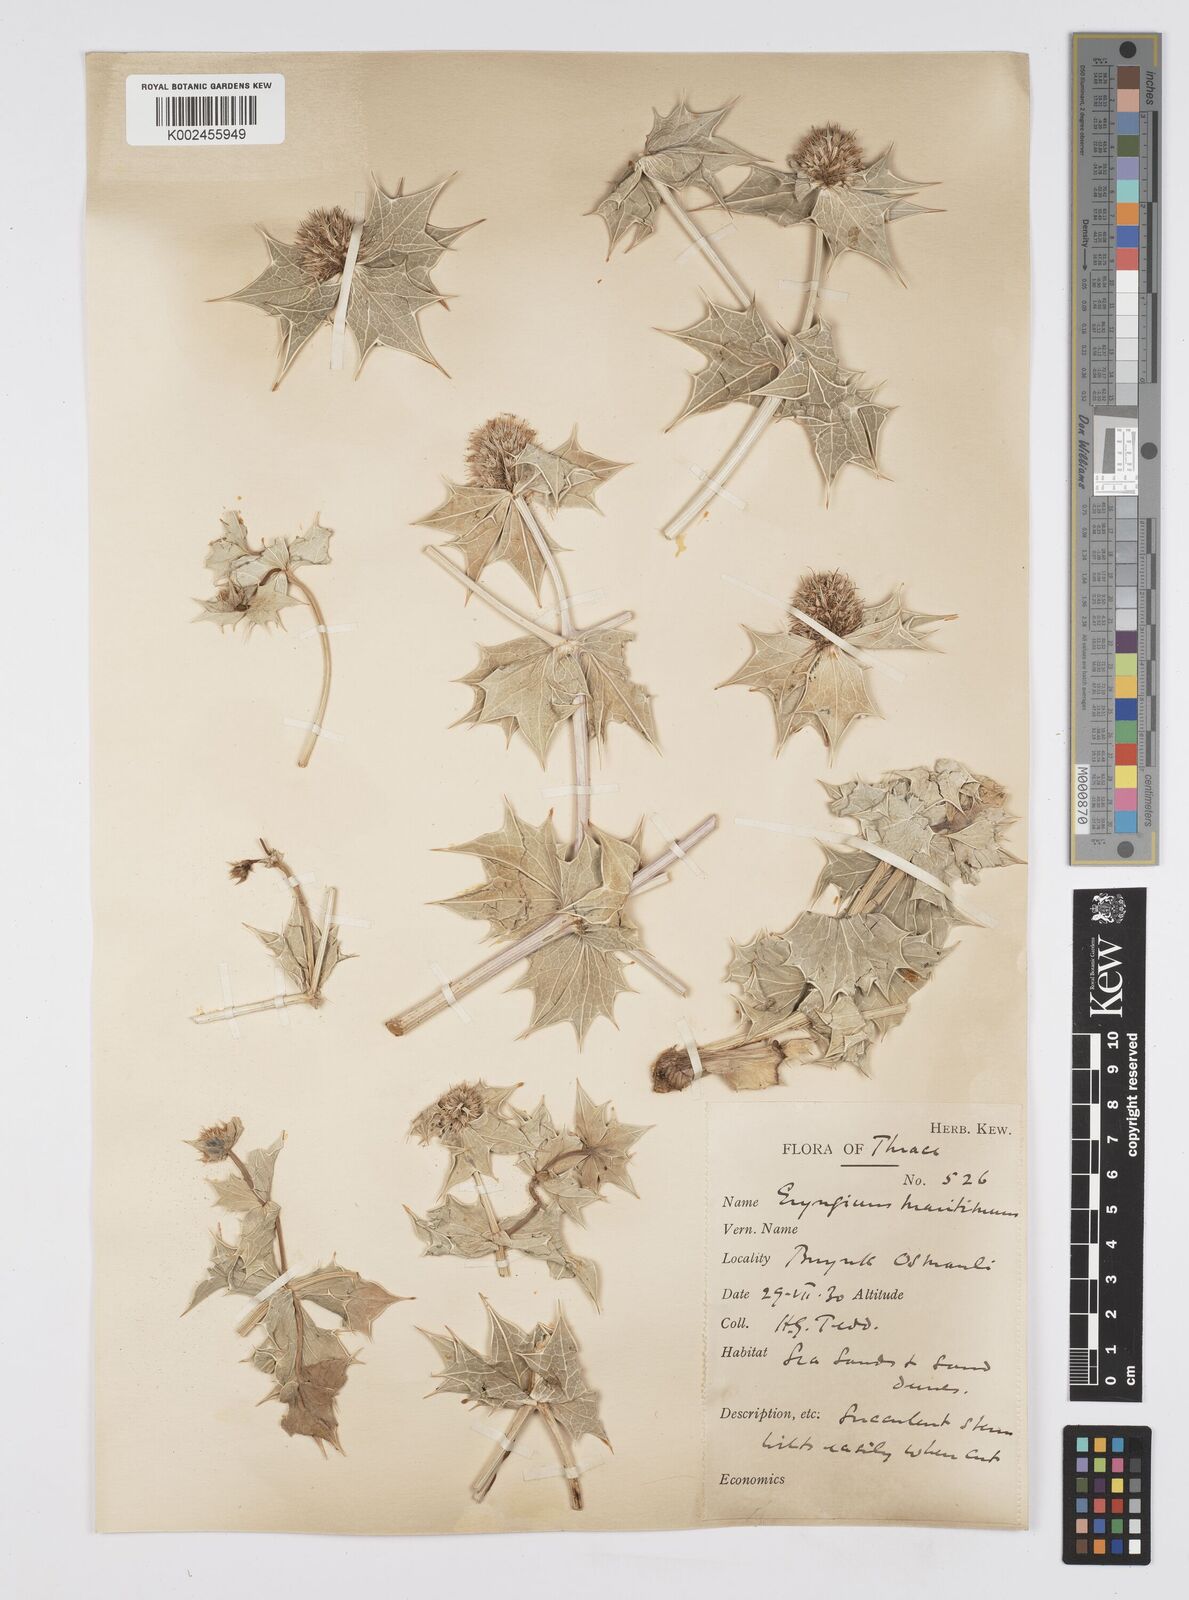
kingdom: Plantae
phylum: Tracheophyta
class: Magnoliopsida
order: Apiales
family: Apiaceae
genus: Eryngium
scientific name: Eryngium maritimum
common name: Sea-holly
